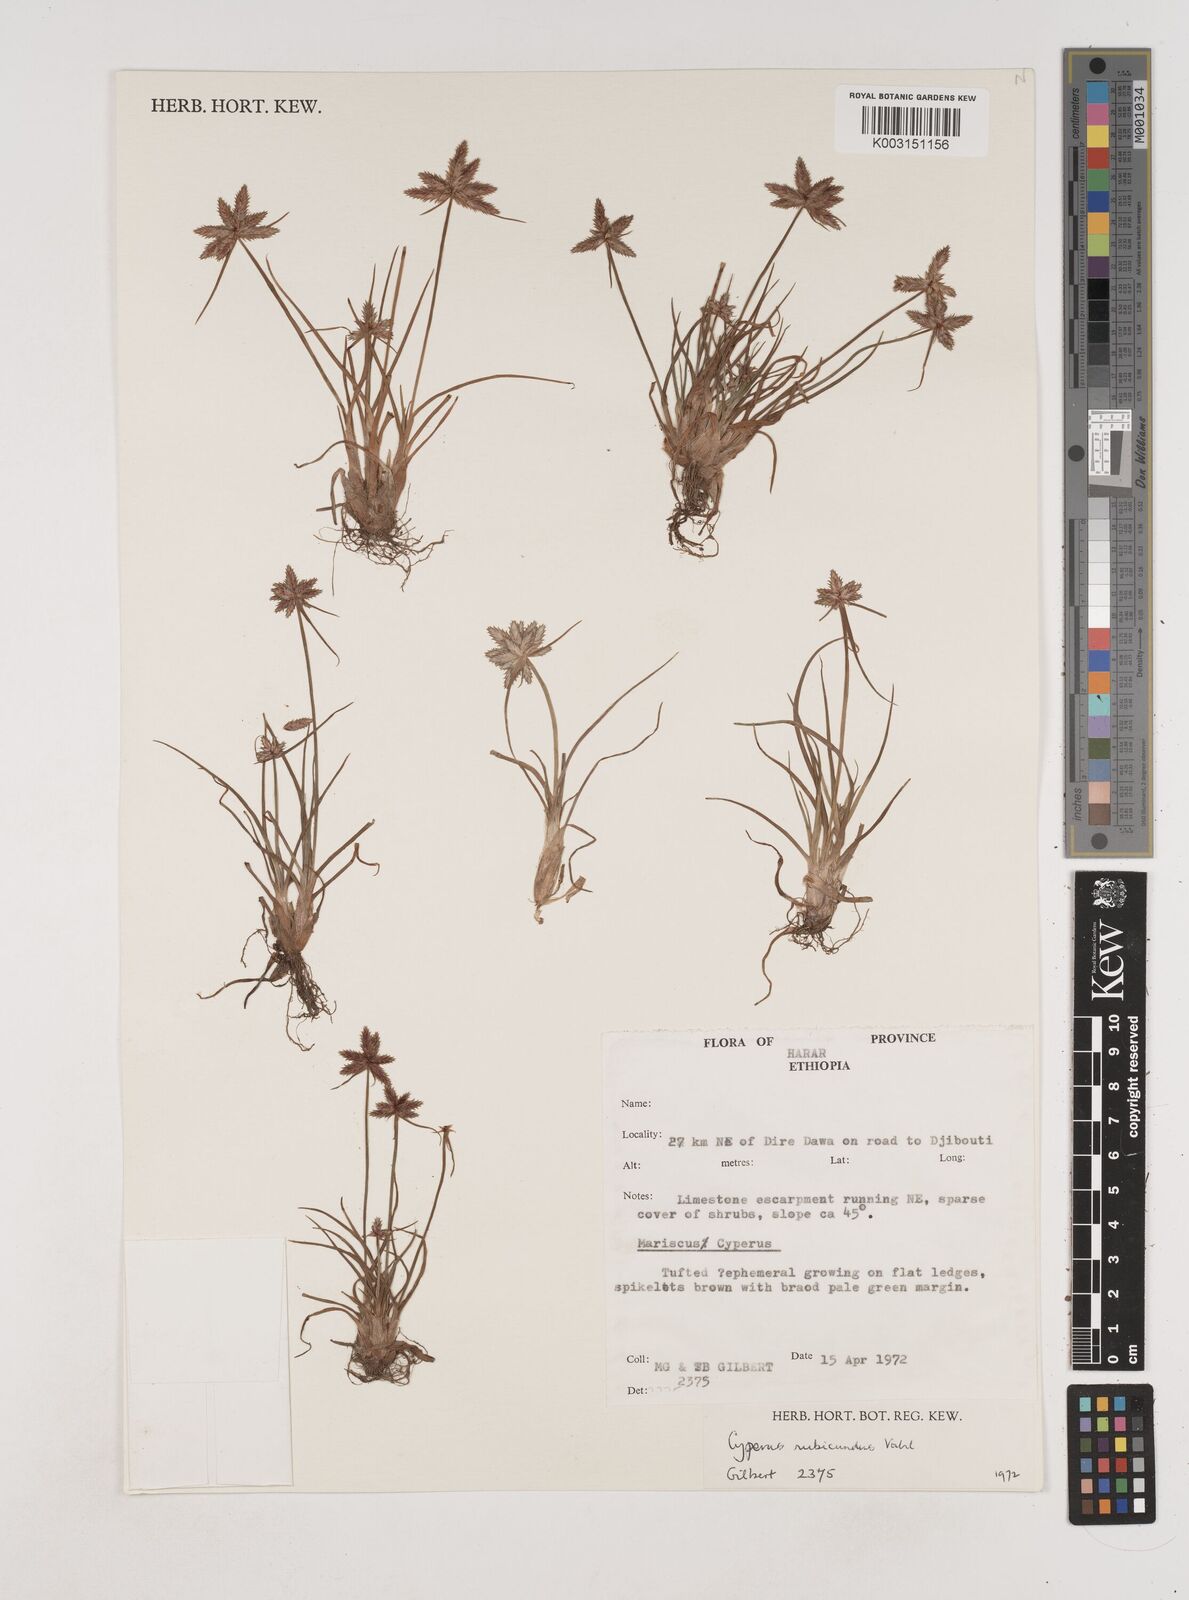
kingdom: Plantae
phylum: Tracheophyta
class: Liliopsida
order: Poales
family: Cyperaceae
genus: Cyperus
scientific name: Cyperus rubicundus
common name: Coco-grass
